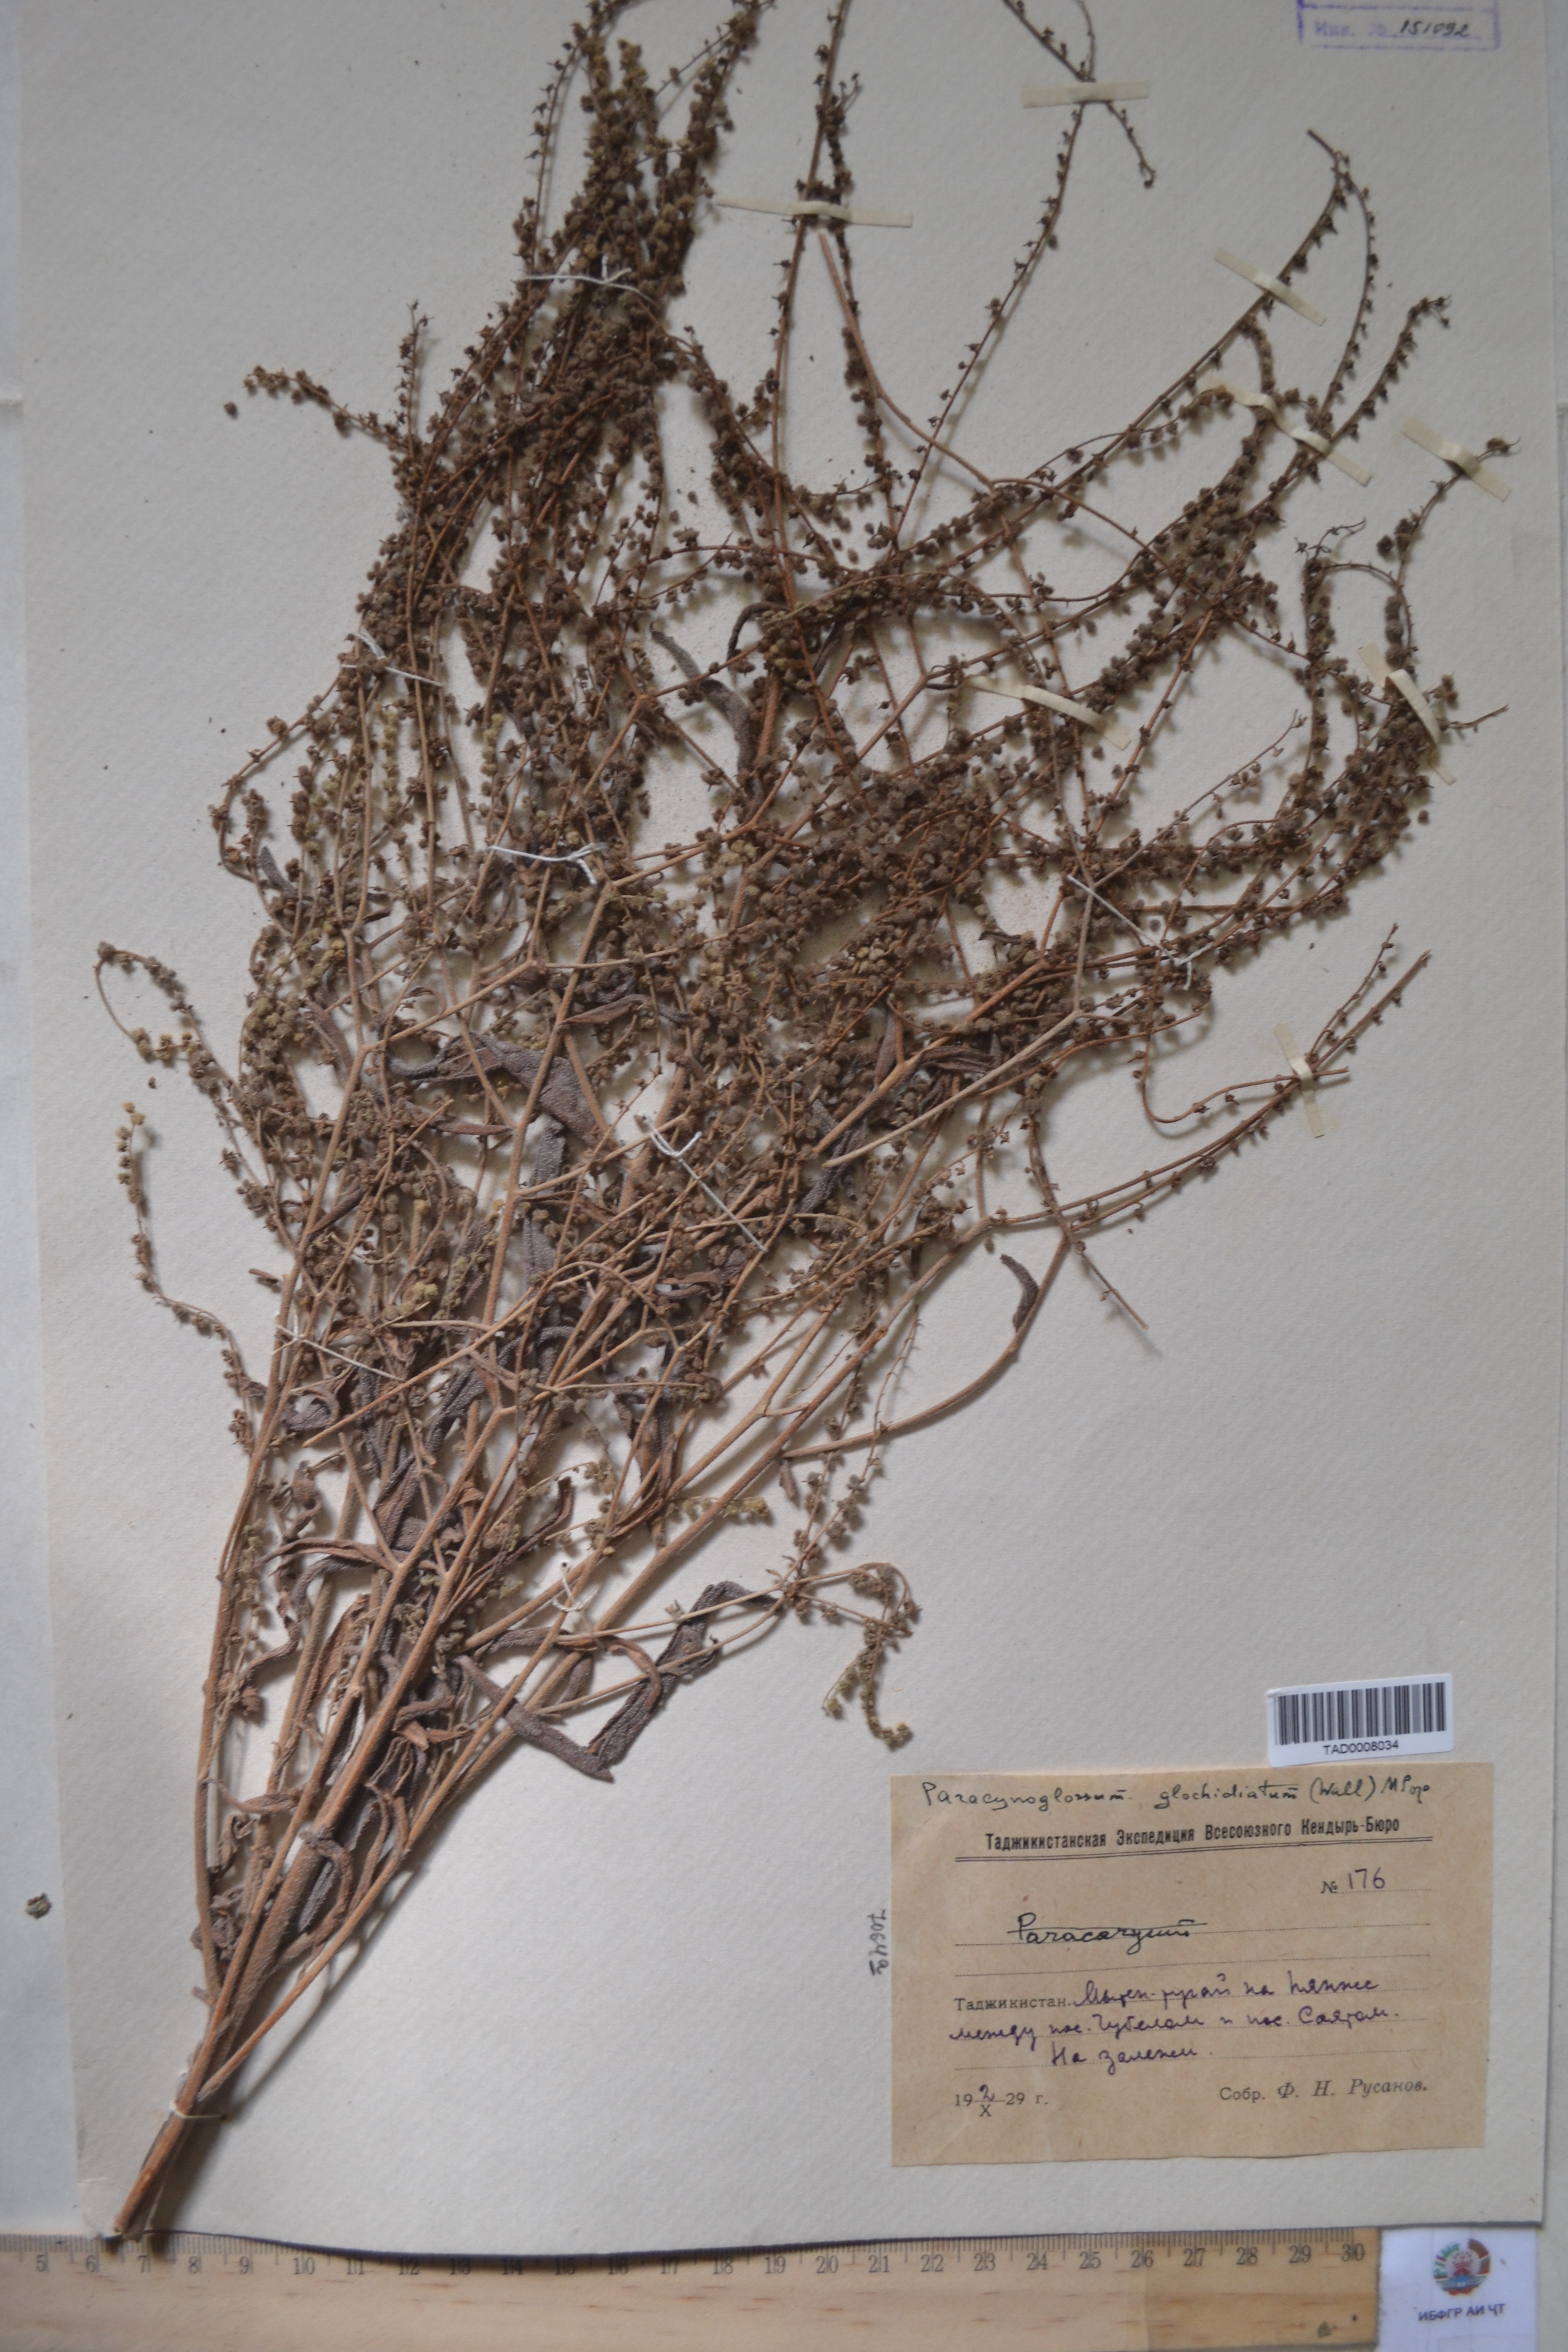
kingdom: Plantae
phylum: Tracheophyta
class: Magnoliopsida
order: Boraginales
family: Boraginaceae
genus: Paracynoglossum
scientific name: Paracynoglossum glochidiatum
